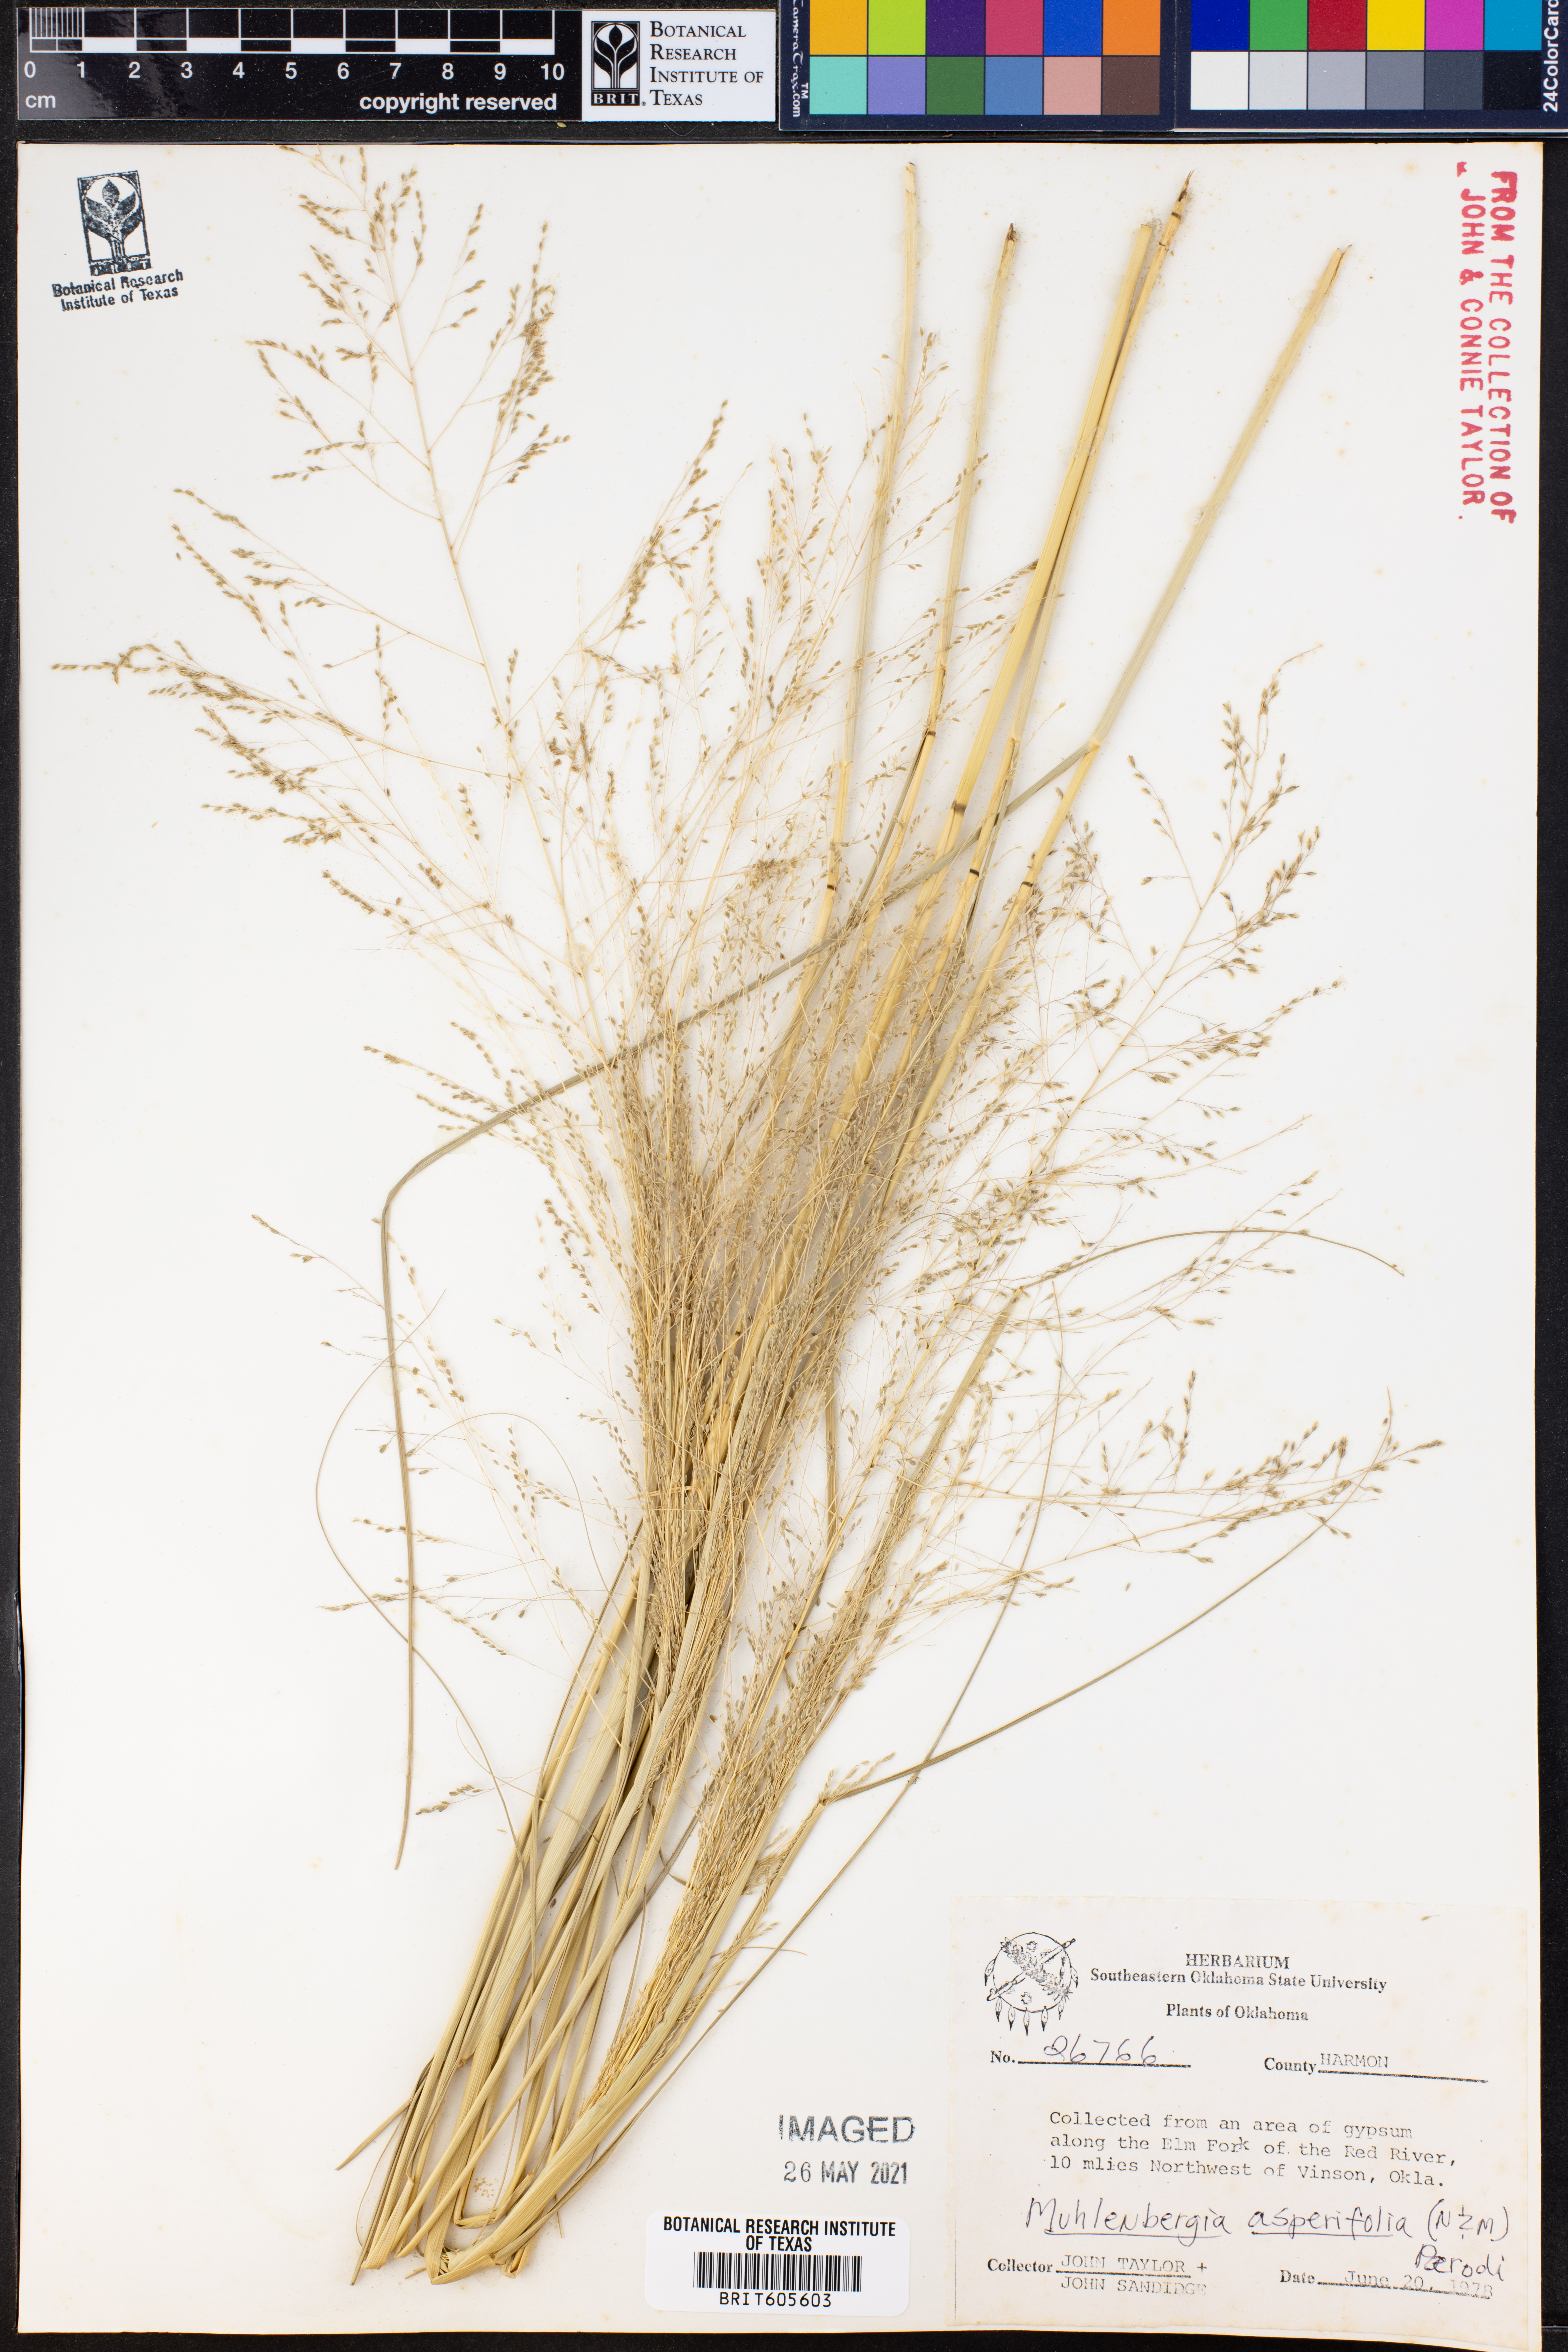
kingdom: Plantae
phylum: Tracheophyta
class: Liliopsida
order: Poales
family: Poaceae
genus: Muhlenbergia
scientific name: Muhlenbergia asperifolia
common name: Alkali muhly
